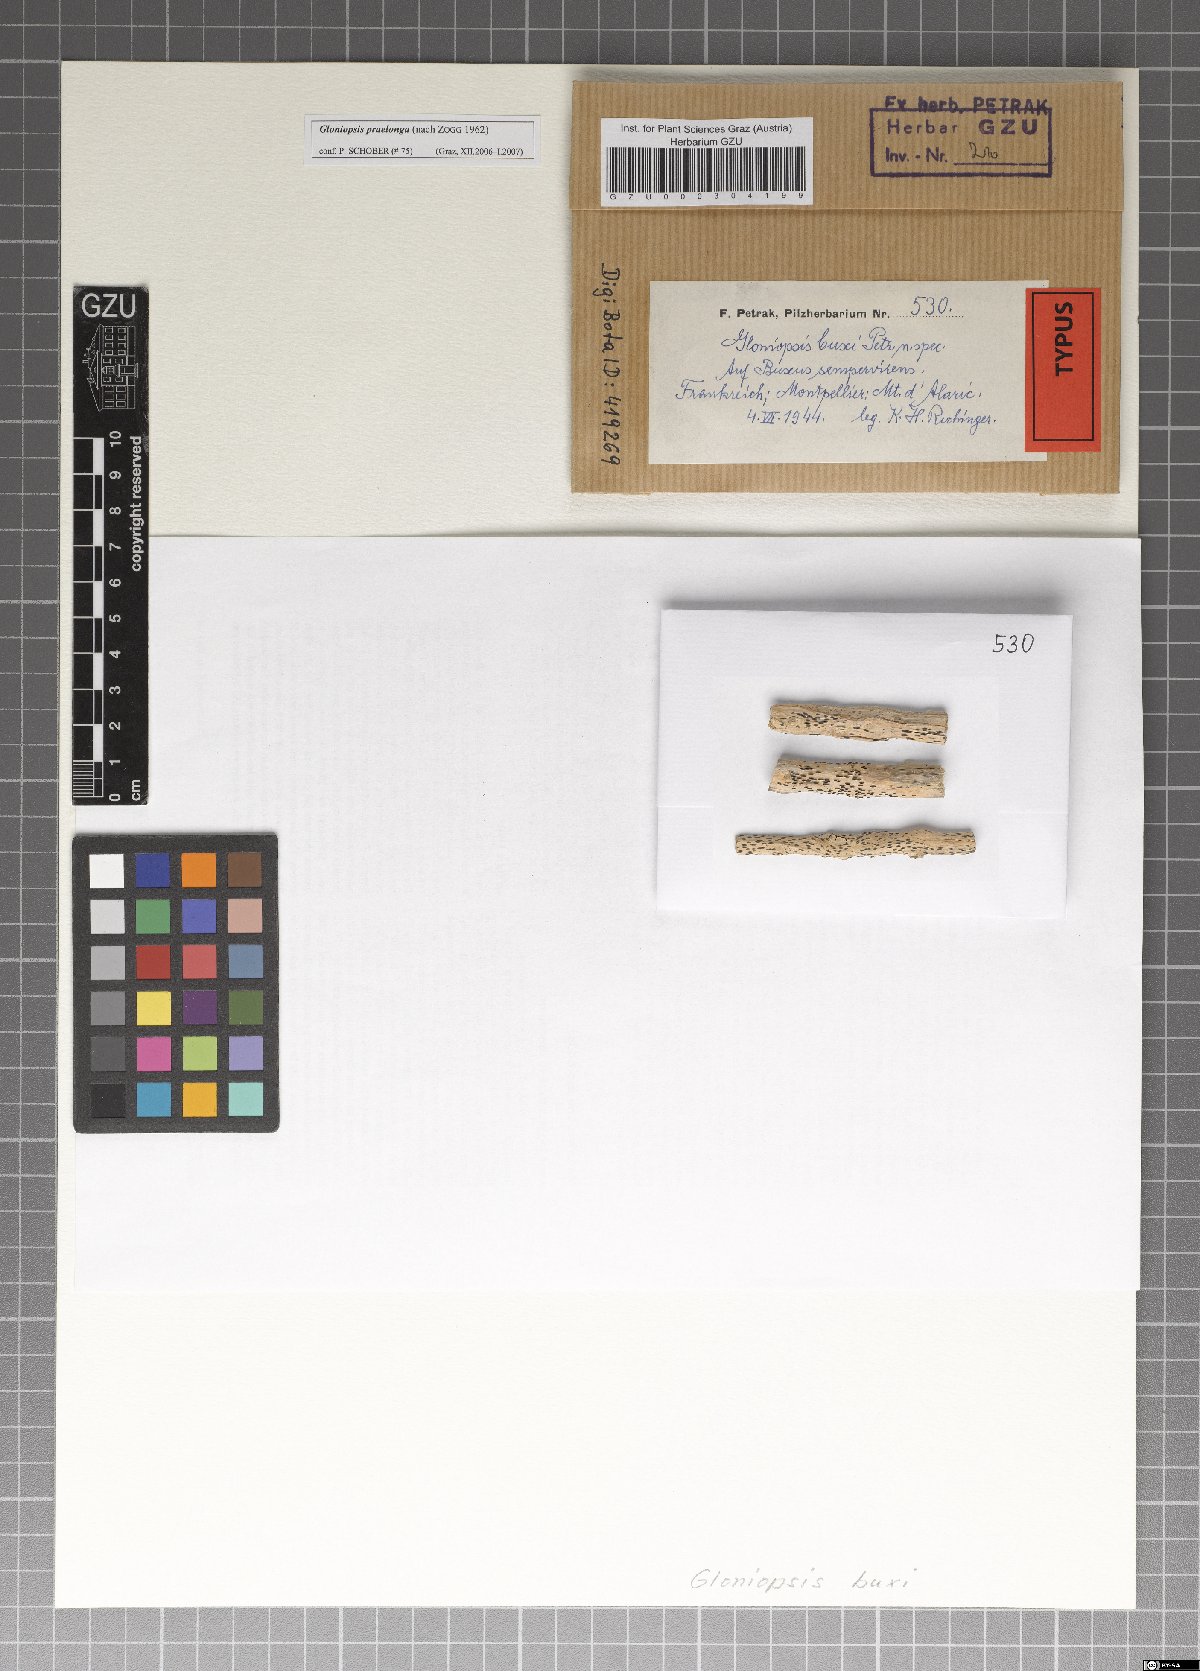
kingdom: Fungi
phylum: Ascomycota
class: Dothideomycetes
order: Hysteriales
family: Hysteriaceae
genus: Gloniopsis
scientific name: Gloniopsis buxi
